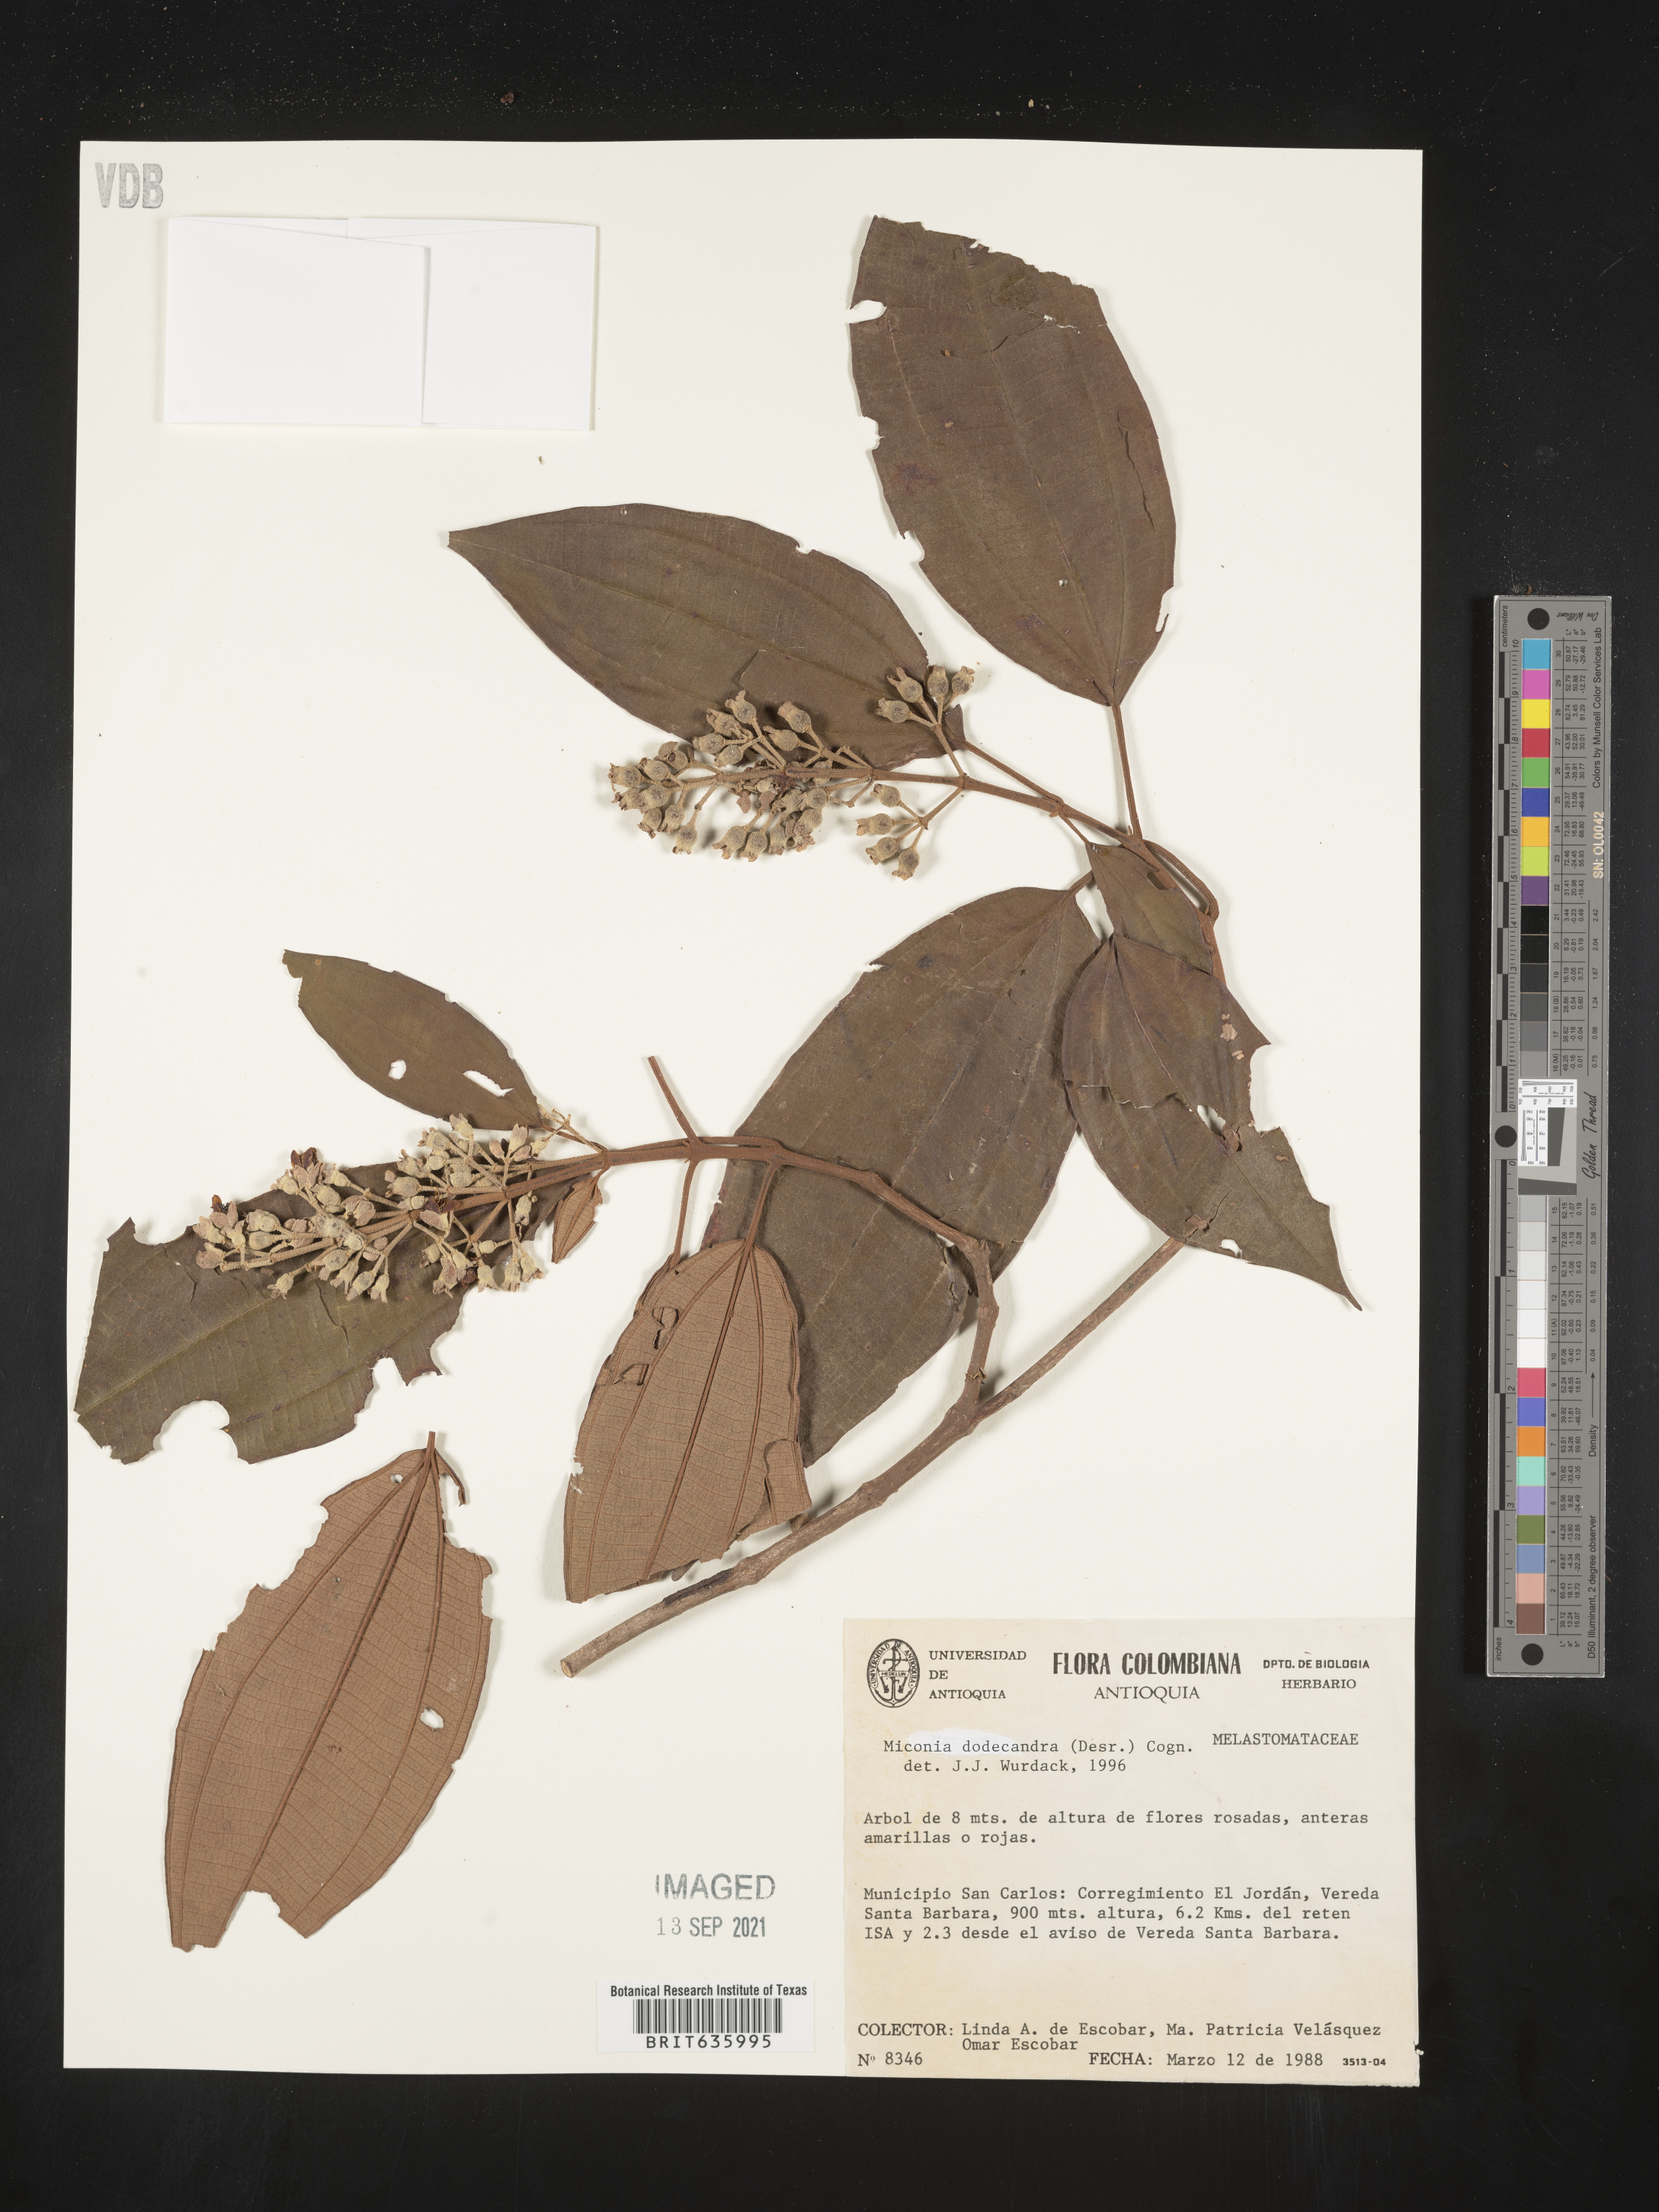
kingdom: Plantae
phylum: Tracheophyta
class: Magnoliopsida
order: Myrtales
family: Melastomataceae
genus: Miconia
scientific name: Miconia
